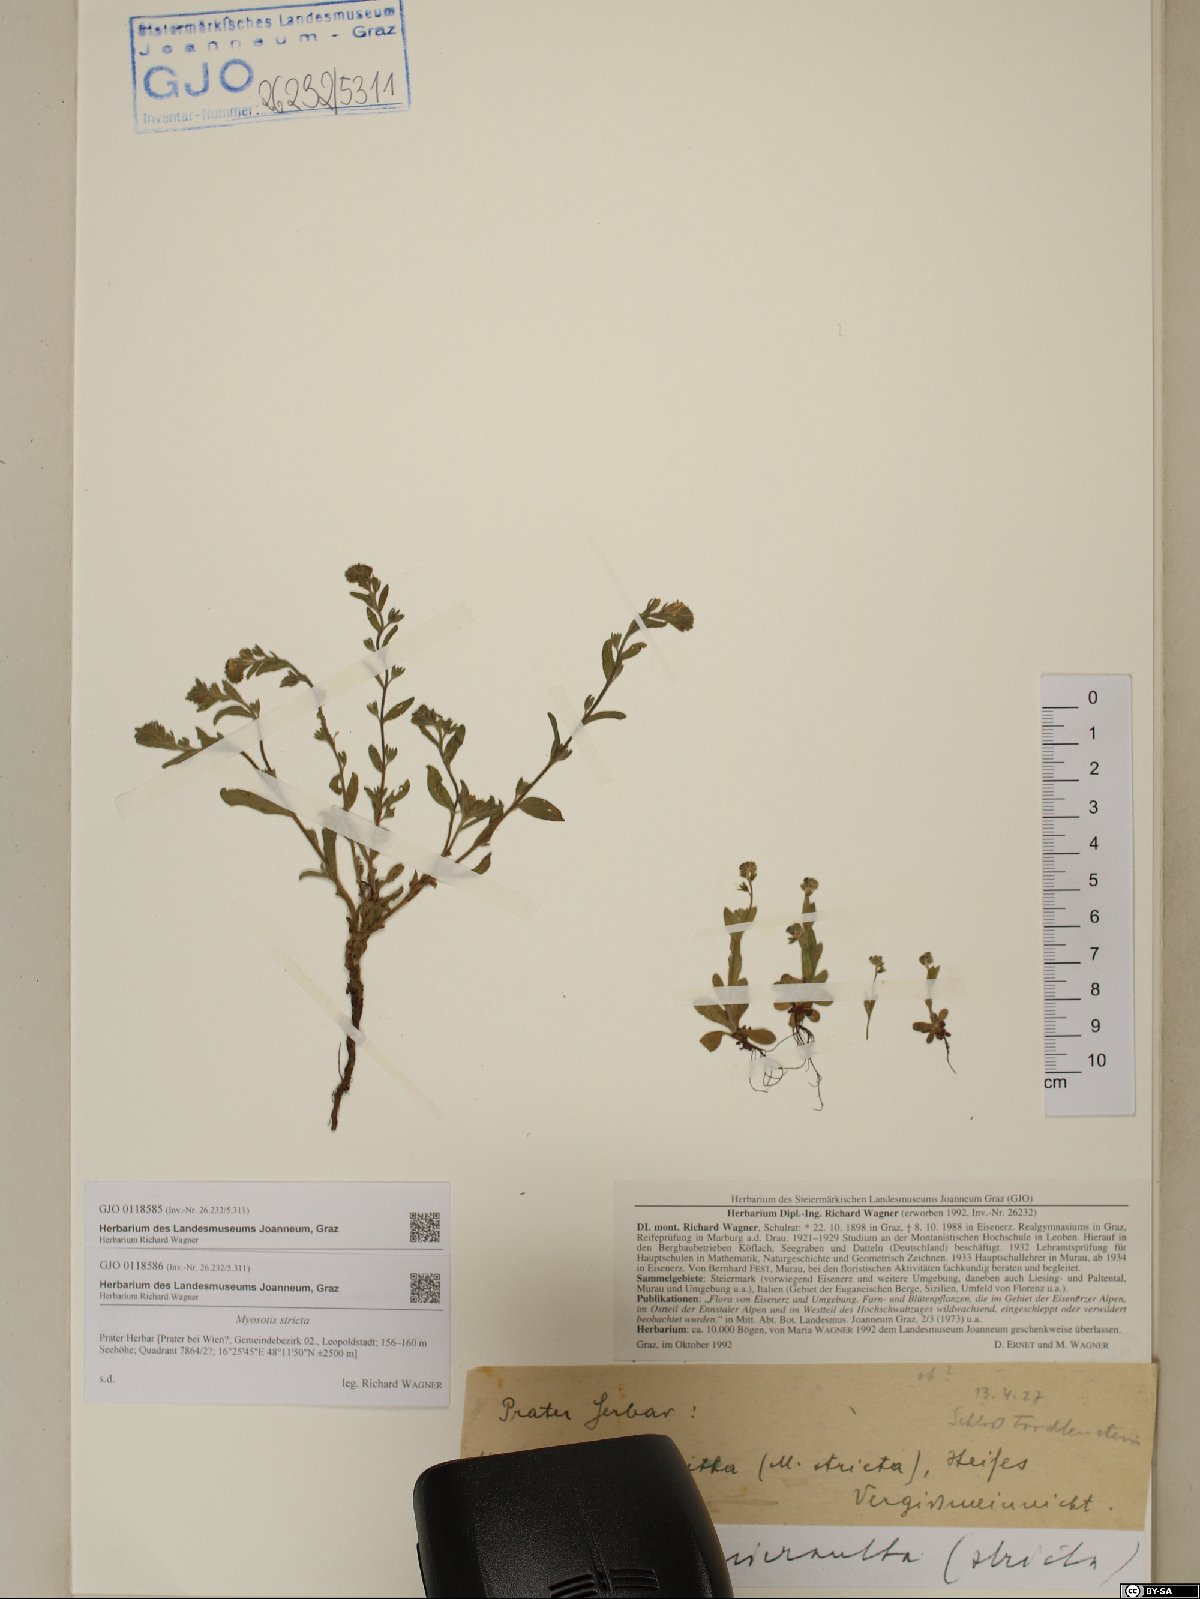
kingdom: Plantae
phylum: Tracheophyta
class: Magnoliopsida
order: Boraginales
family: Boraginaceae
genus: Myosotis
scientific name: Myosotis stricta
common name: Strict forget-me-not
